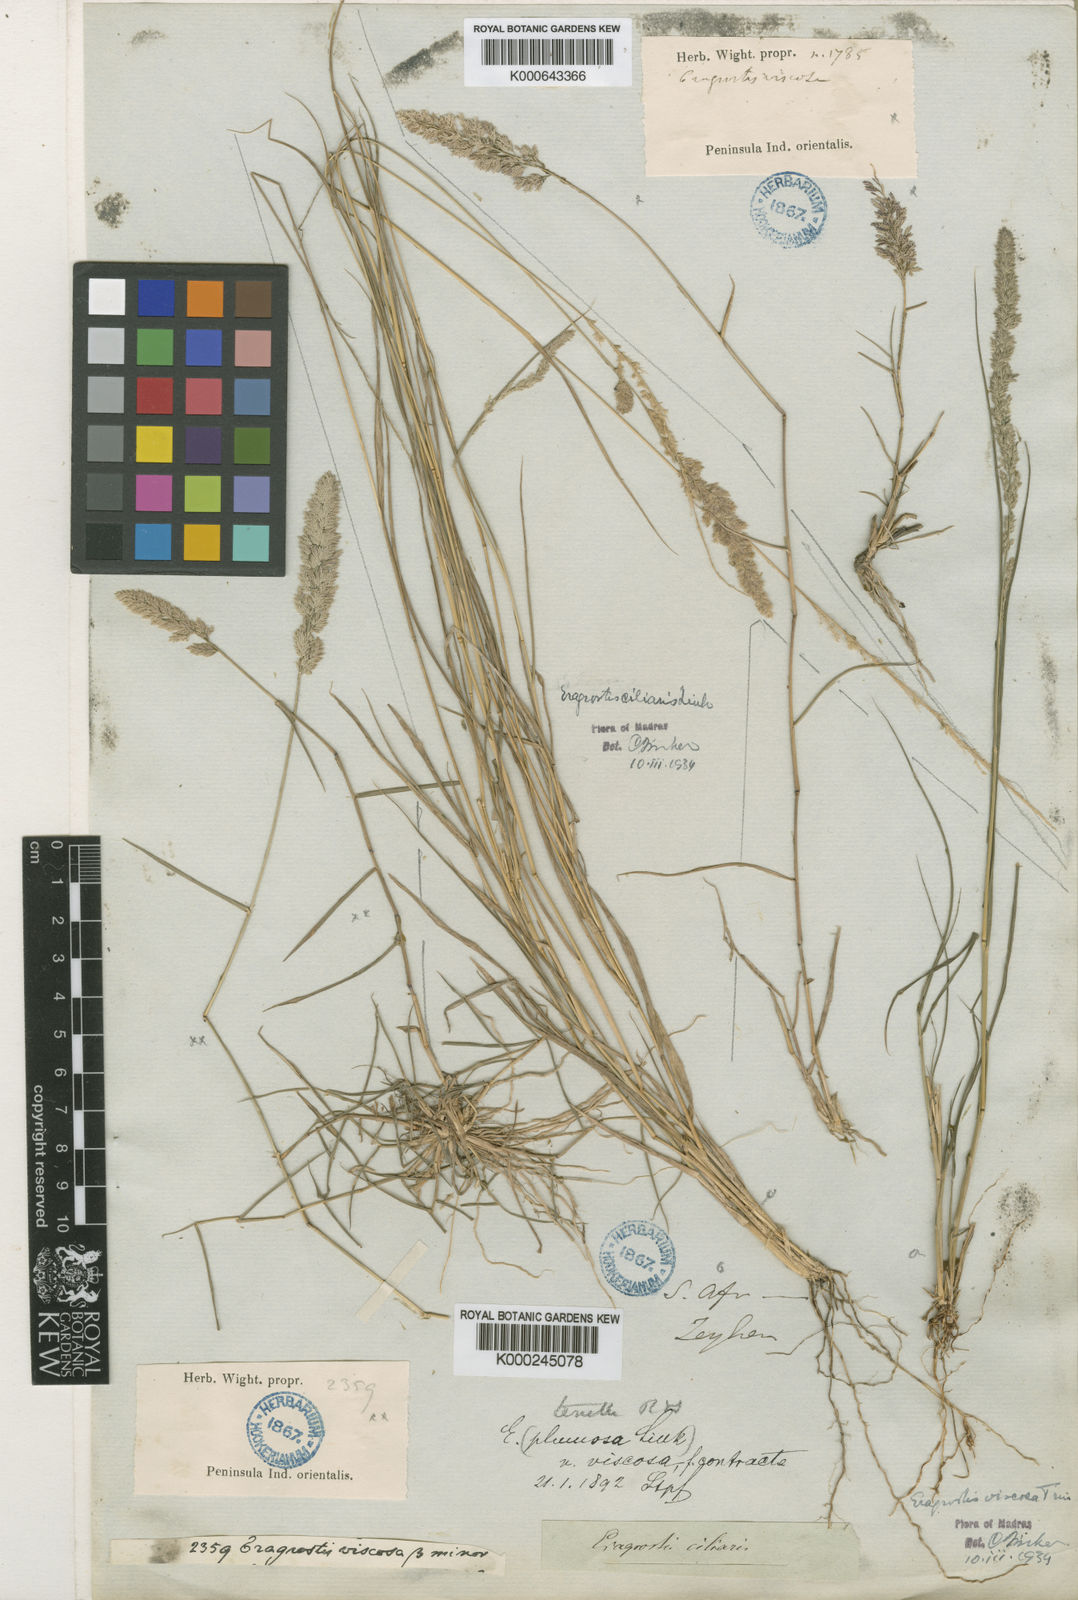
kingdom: Plantae
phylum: Tracheophyta
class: Liliopsida
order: Poales
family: Poaceae
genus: Eragrostis
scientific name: Eragrostis viscosa
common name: Sticky love grass
